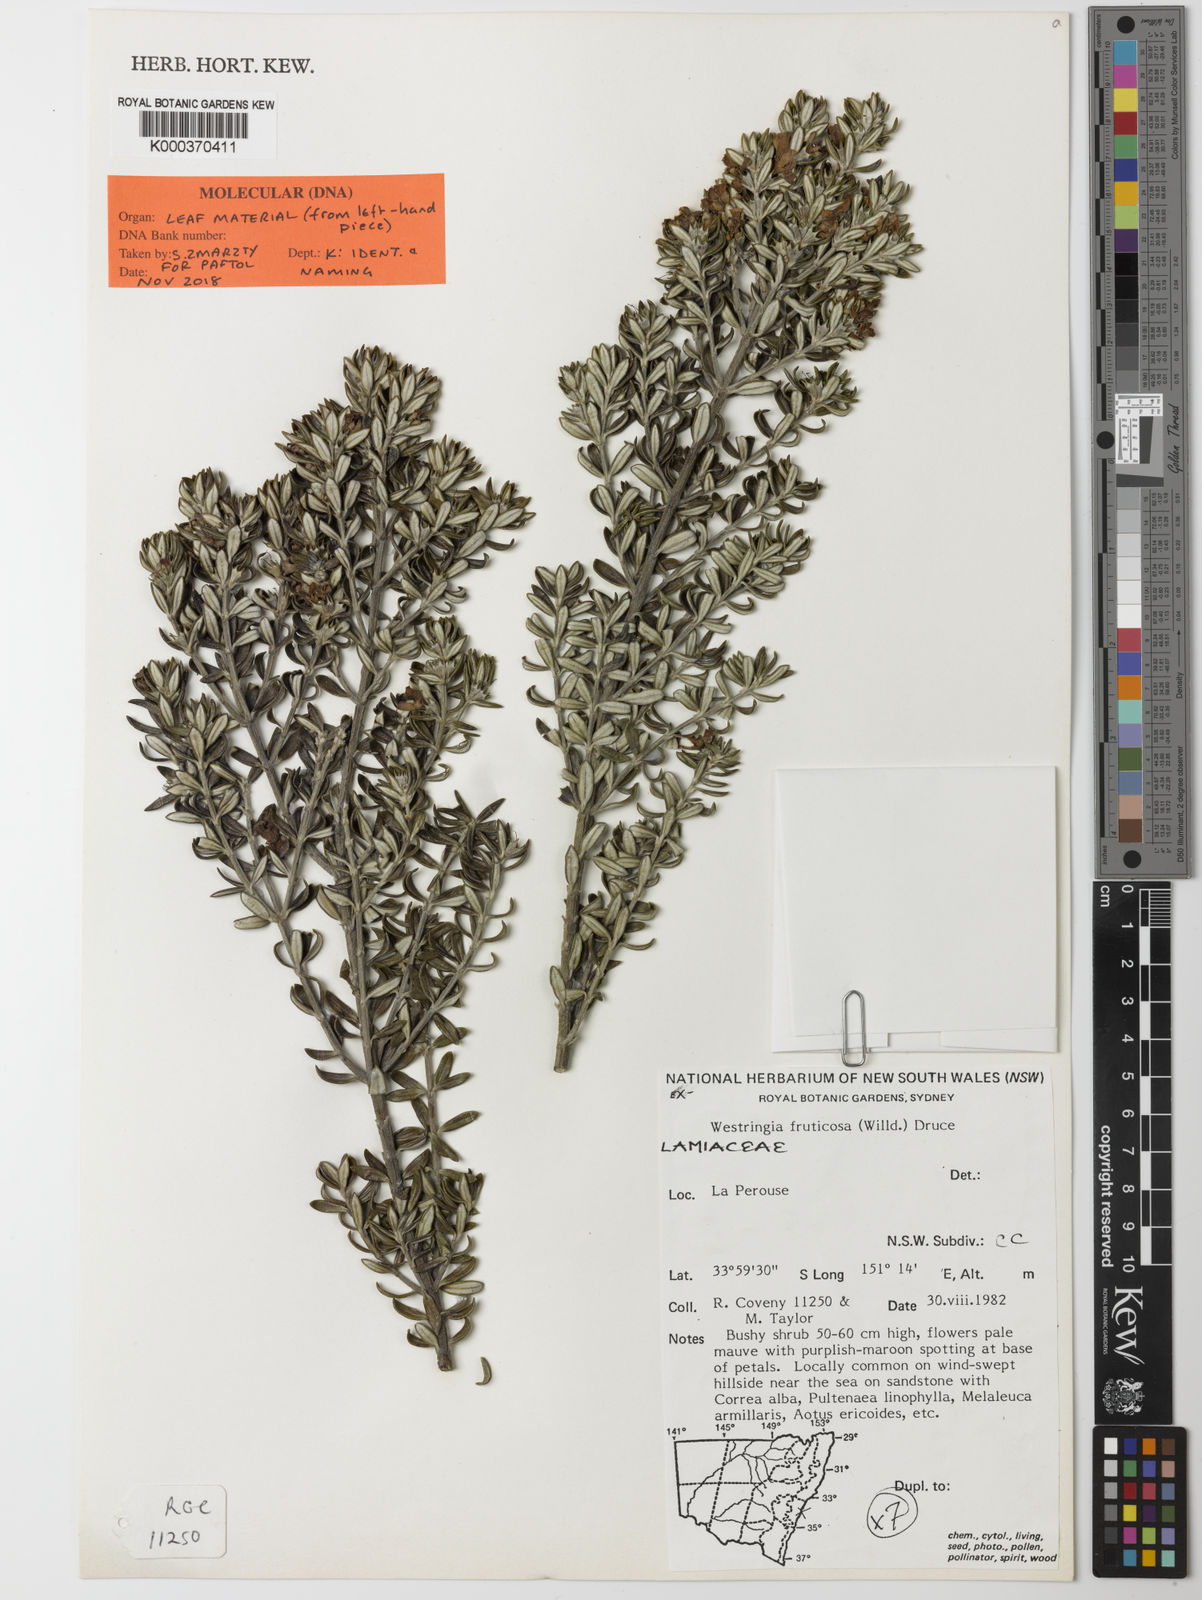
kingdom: Plantae
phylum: Tracheophyta
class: Magnoliopsida
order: Lamiales
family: Lamiaceae
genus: Westringia
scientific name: Westringia fruticosa
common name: Coastal-rosemary
